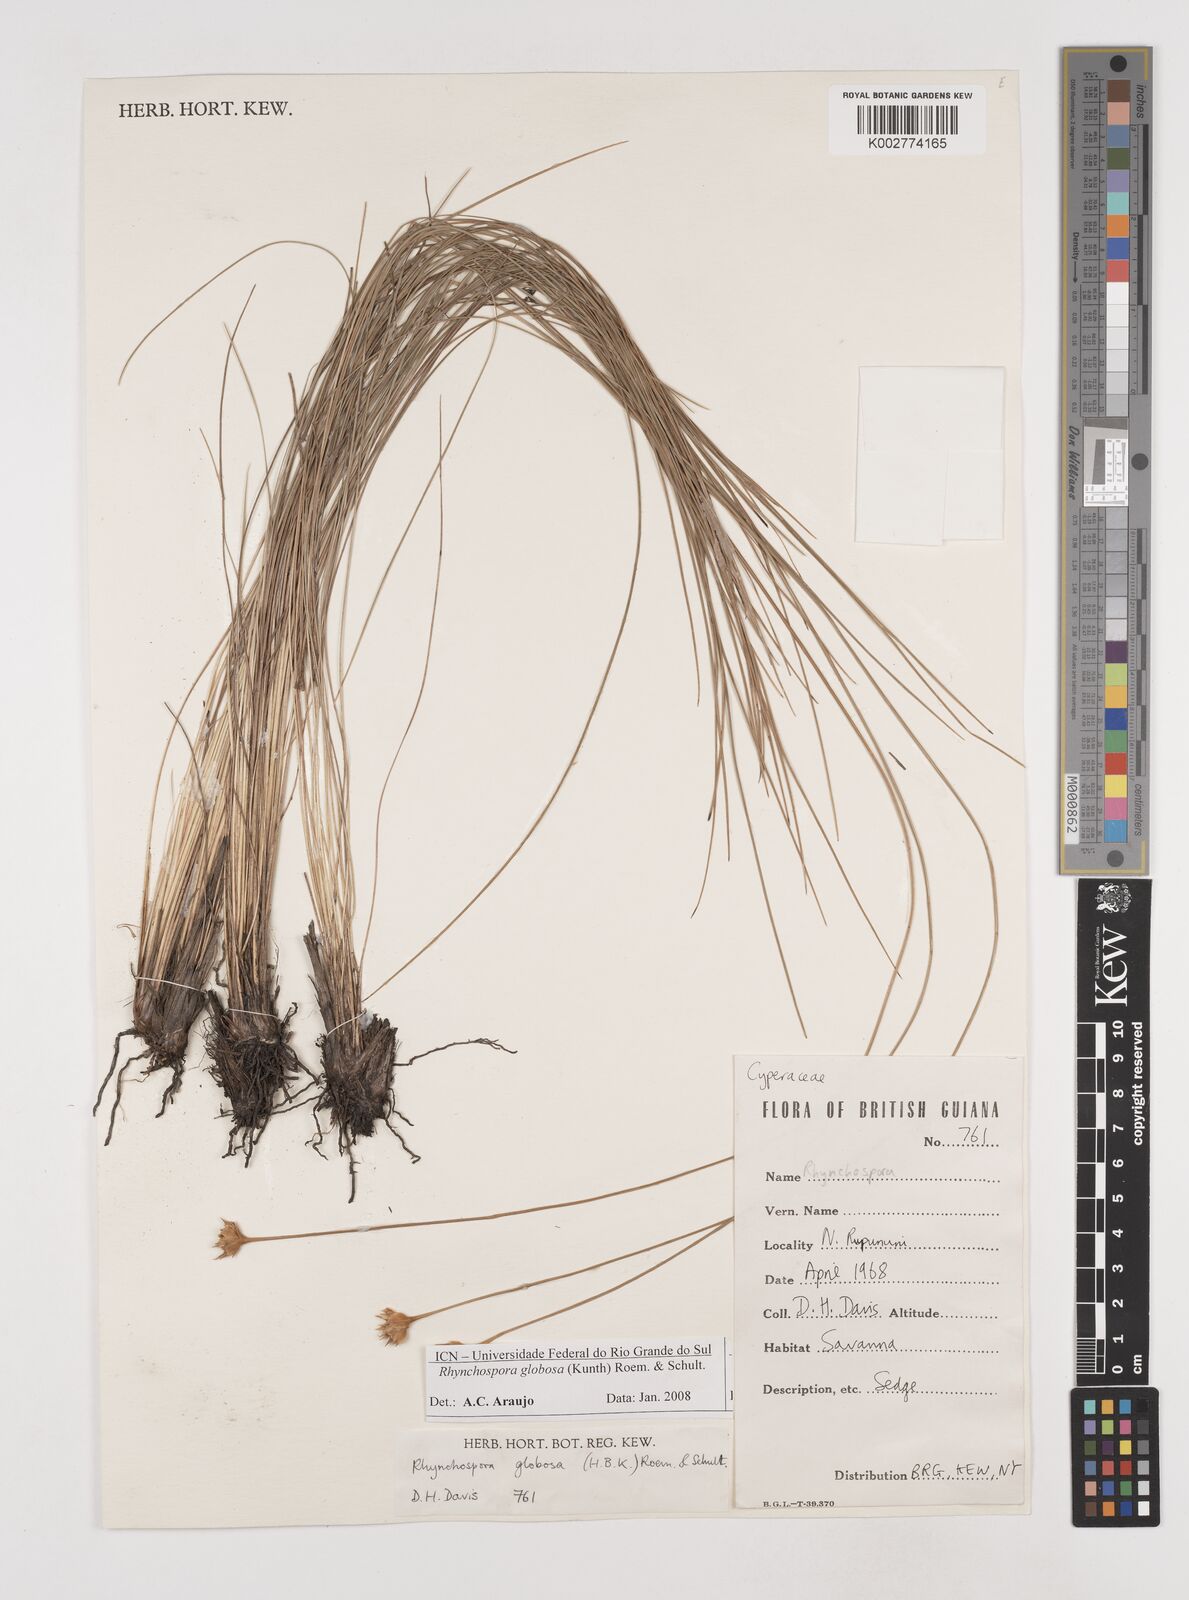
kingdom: Plantae
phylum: Tracheophyta
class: Liliopsida
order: Poales
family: Cyperaceae
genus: Rhynchospora
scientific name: Rhynchospora globosa
